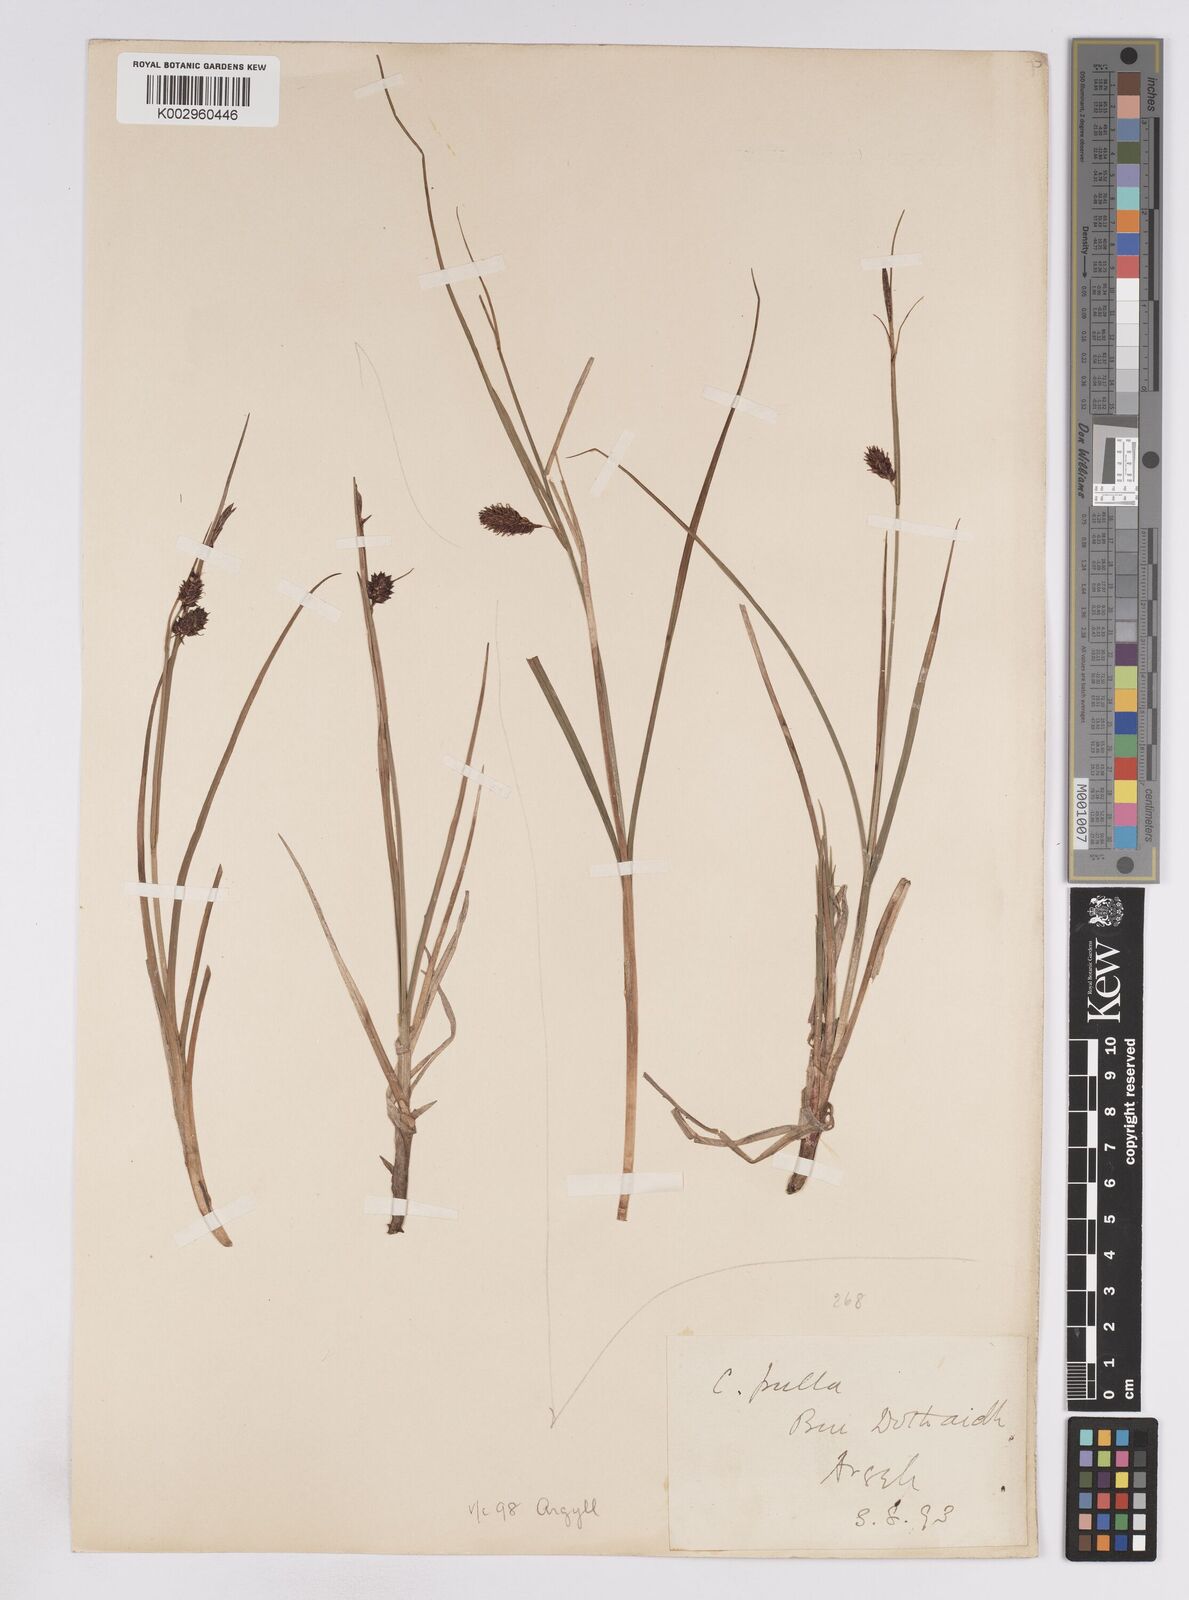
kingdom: Plantae
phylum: Tracheophyta
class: Liliopsida
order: Poales
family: Cyperaceae
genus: Carex
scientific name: Carex saxatilis
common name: Russet sedge
